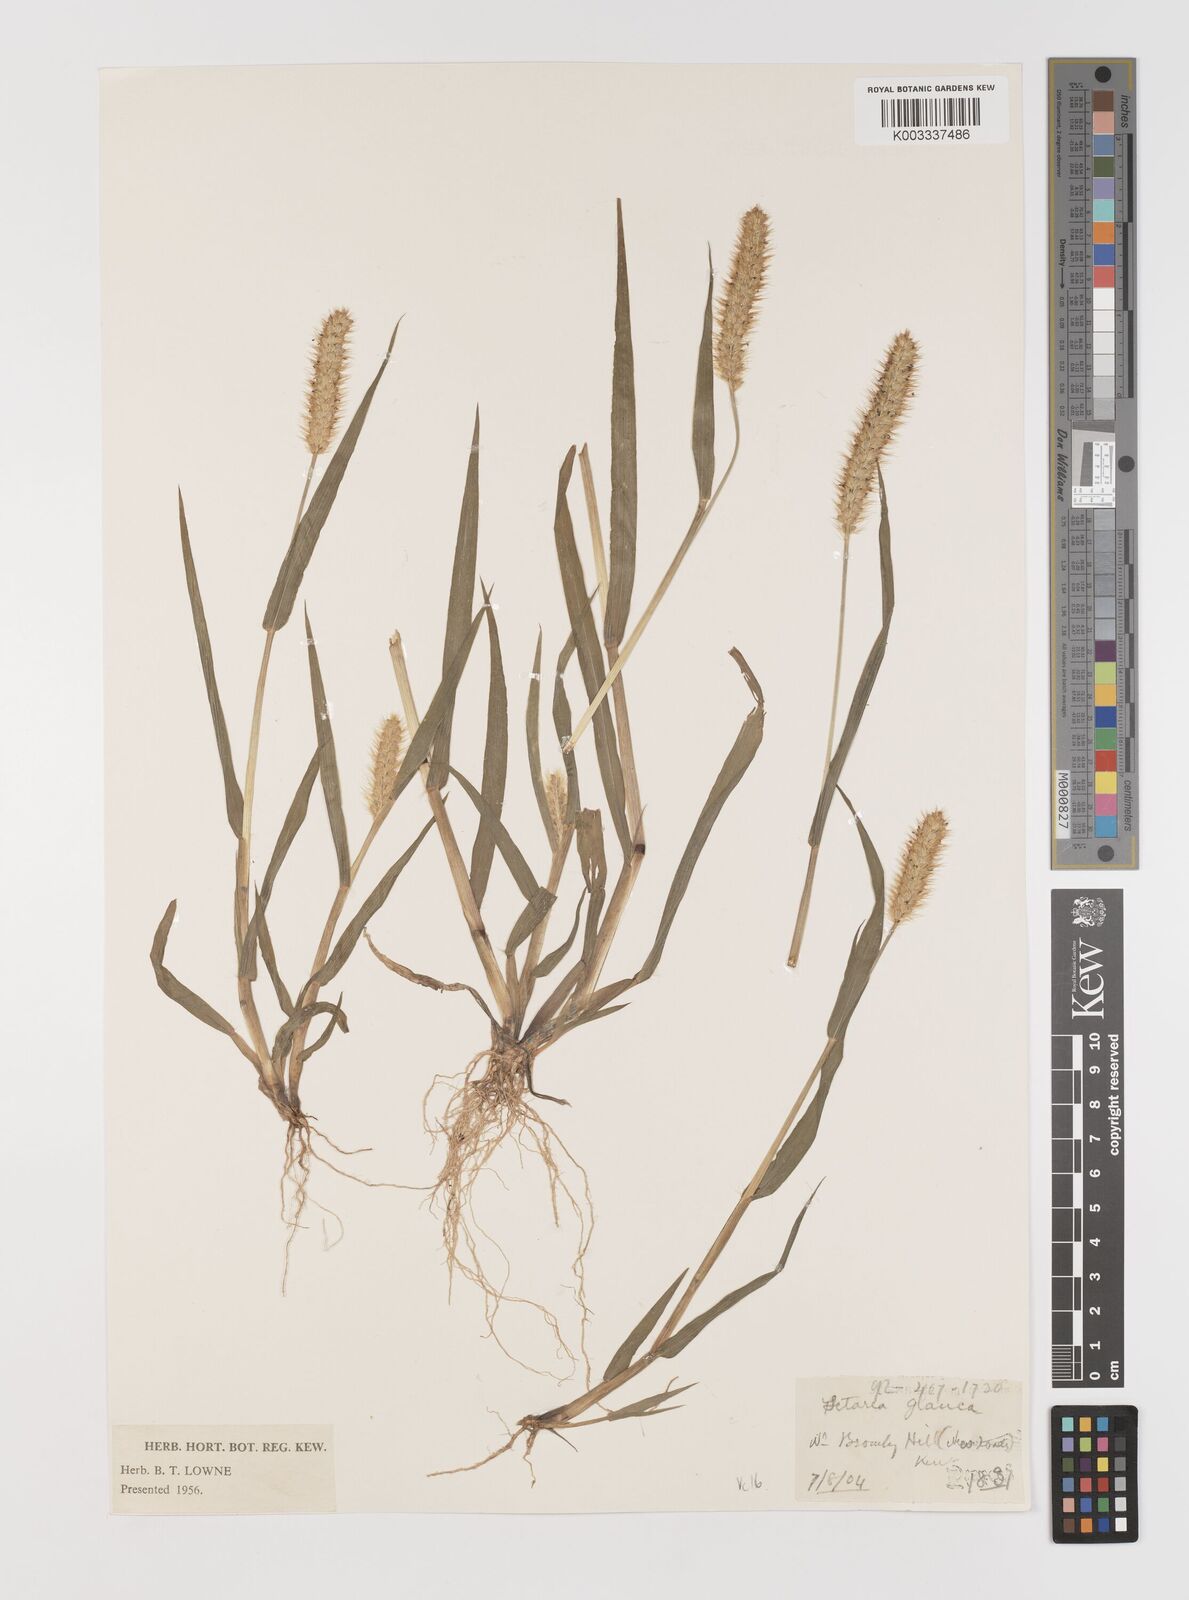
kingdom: Plantae
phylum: Tracheophyta
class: Liliopsida
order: Poales
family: Poaceae
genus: Setaria
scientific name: Setaria pumila
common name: Yellow bristle-grass
